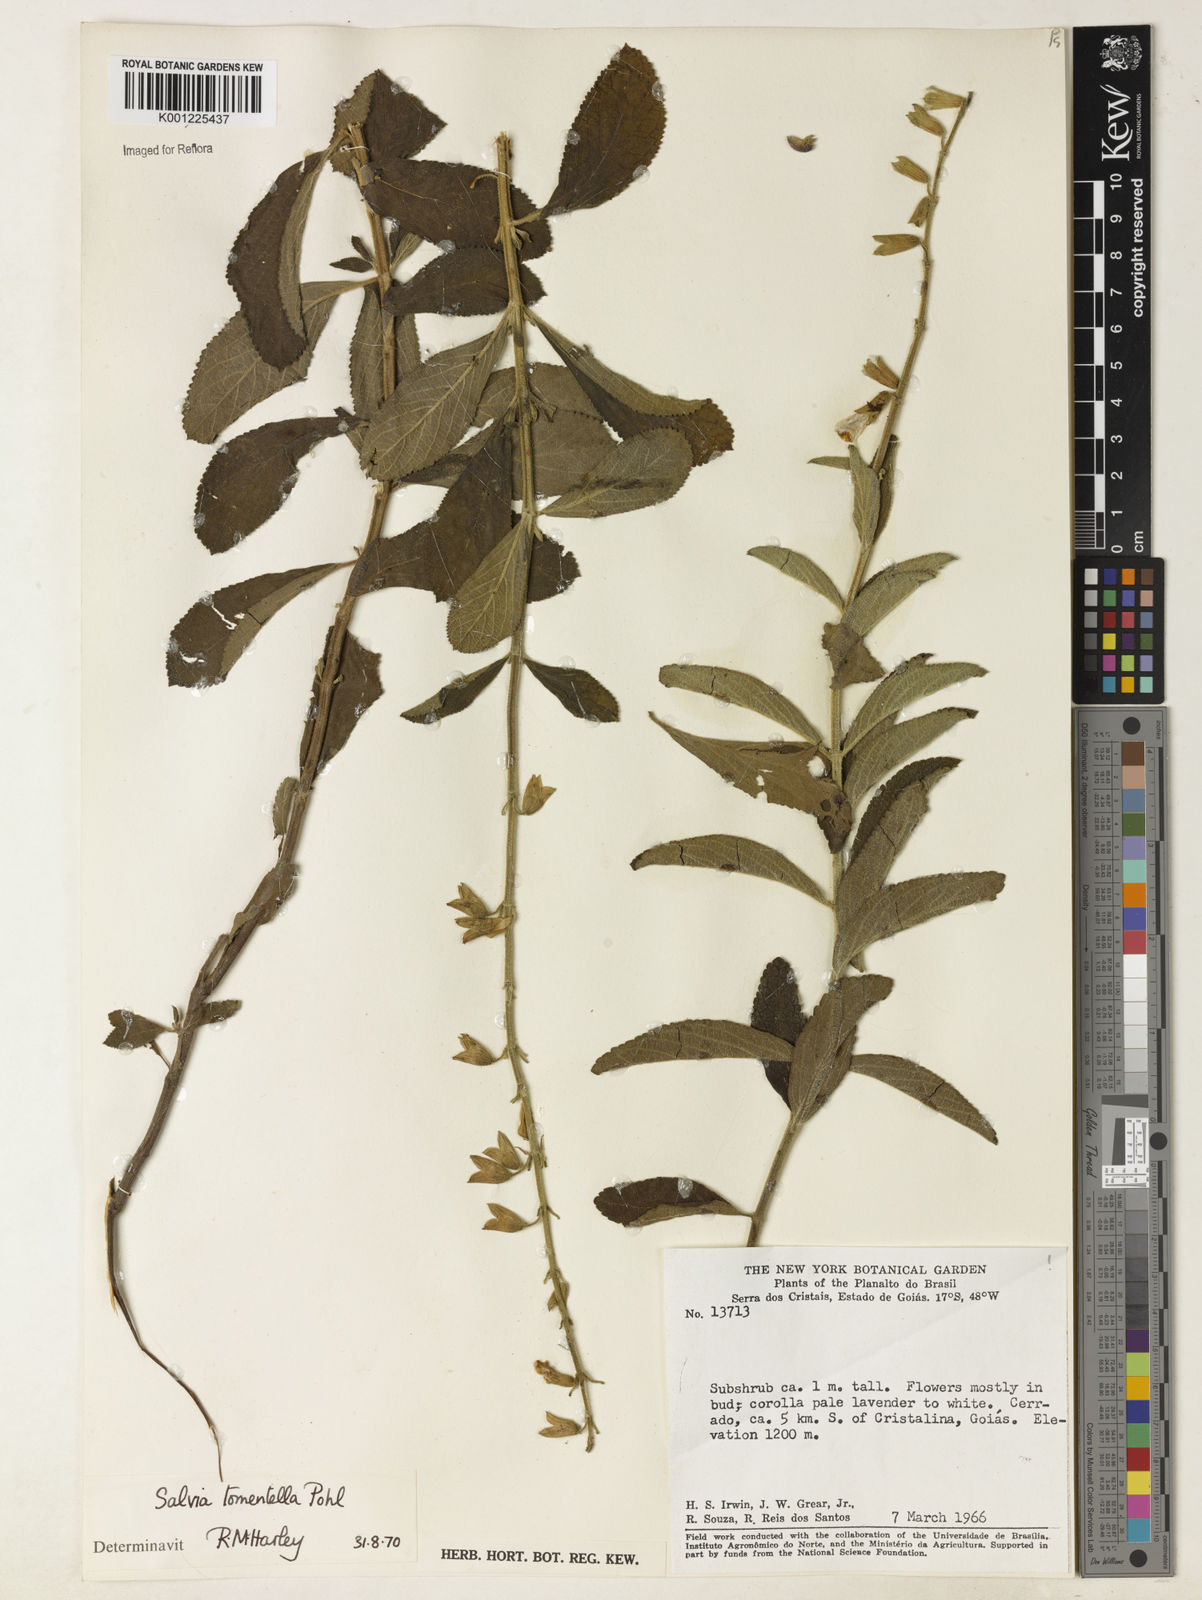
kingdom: Plantae
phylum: Tracheophyta
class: Magnoliopsida
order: Lamiales
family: Lamiaceae
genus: Salvia
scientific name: Salvia tomentella
